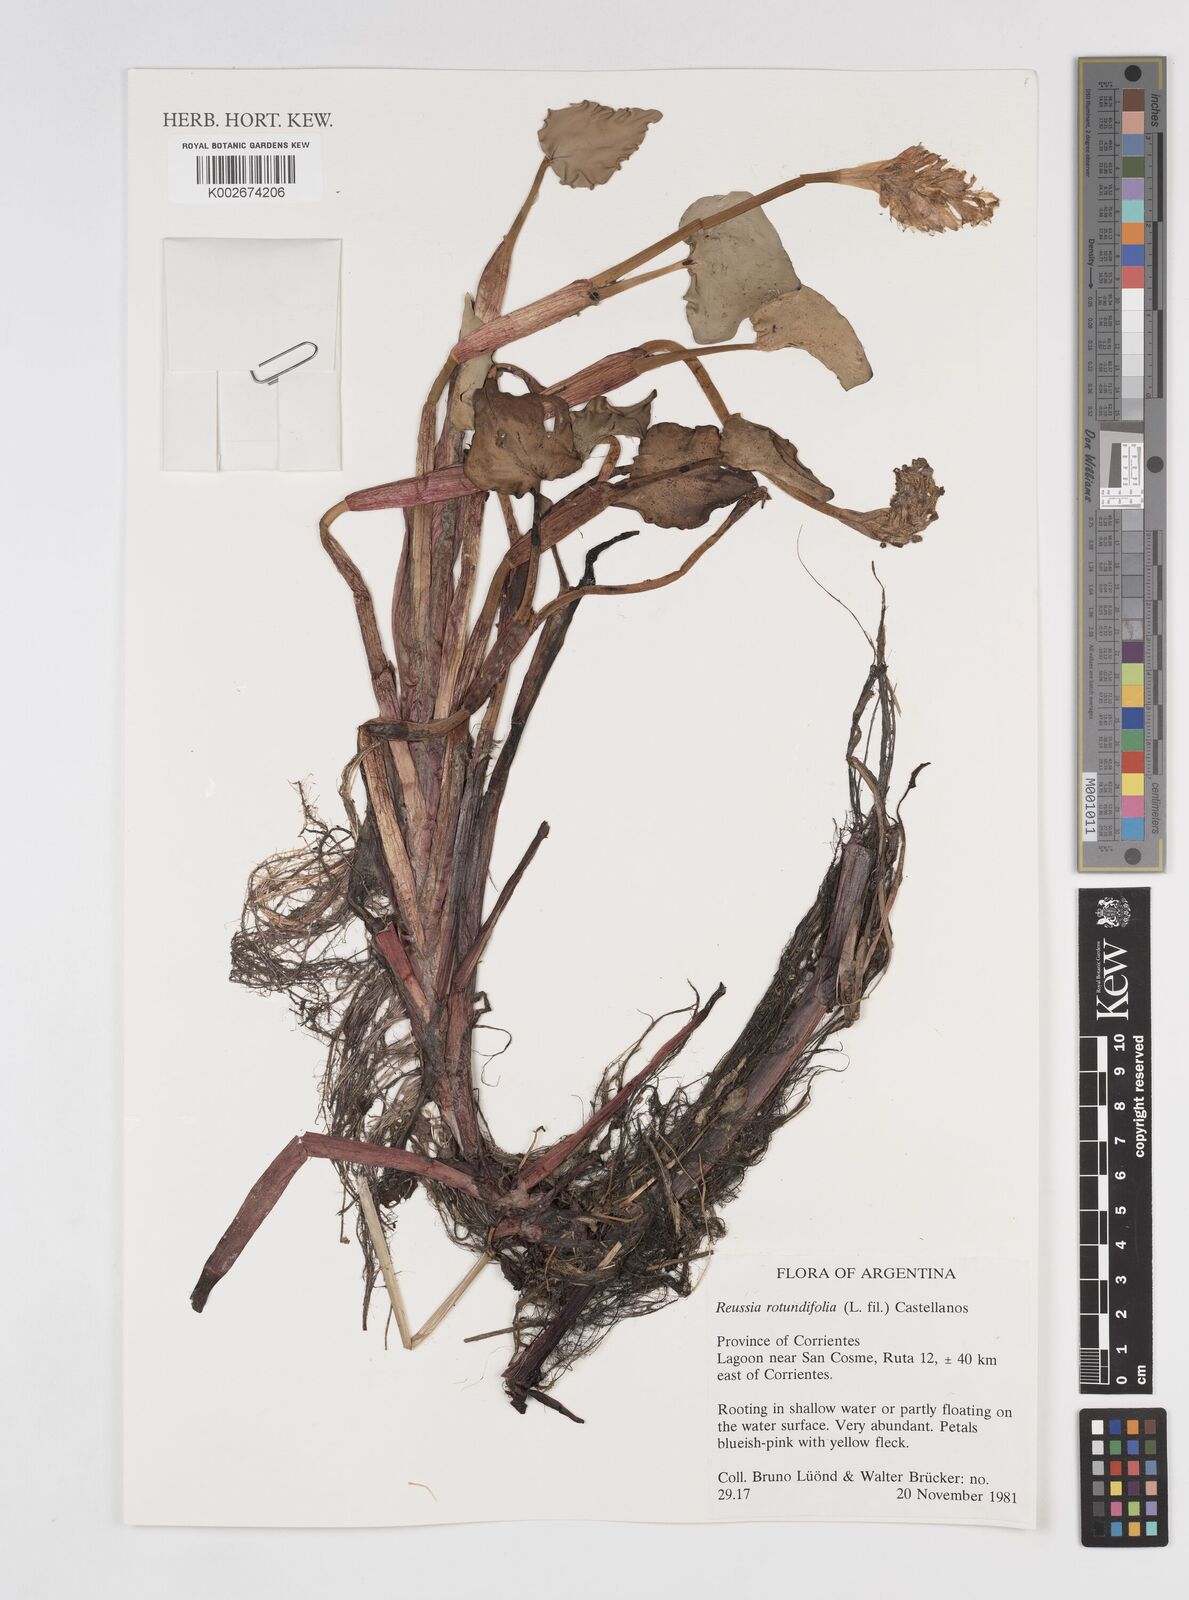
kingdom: Plantae
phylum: Tracheophyta
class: Liliopsida
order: Commelinales
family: Pontederiaceae
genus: Pontederia
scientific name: Pontederia rotundifolia
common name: Tropical pickerel-weed
